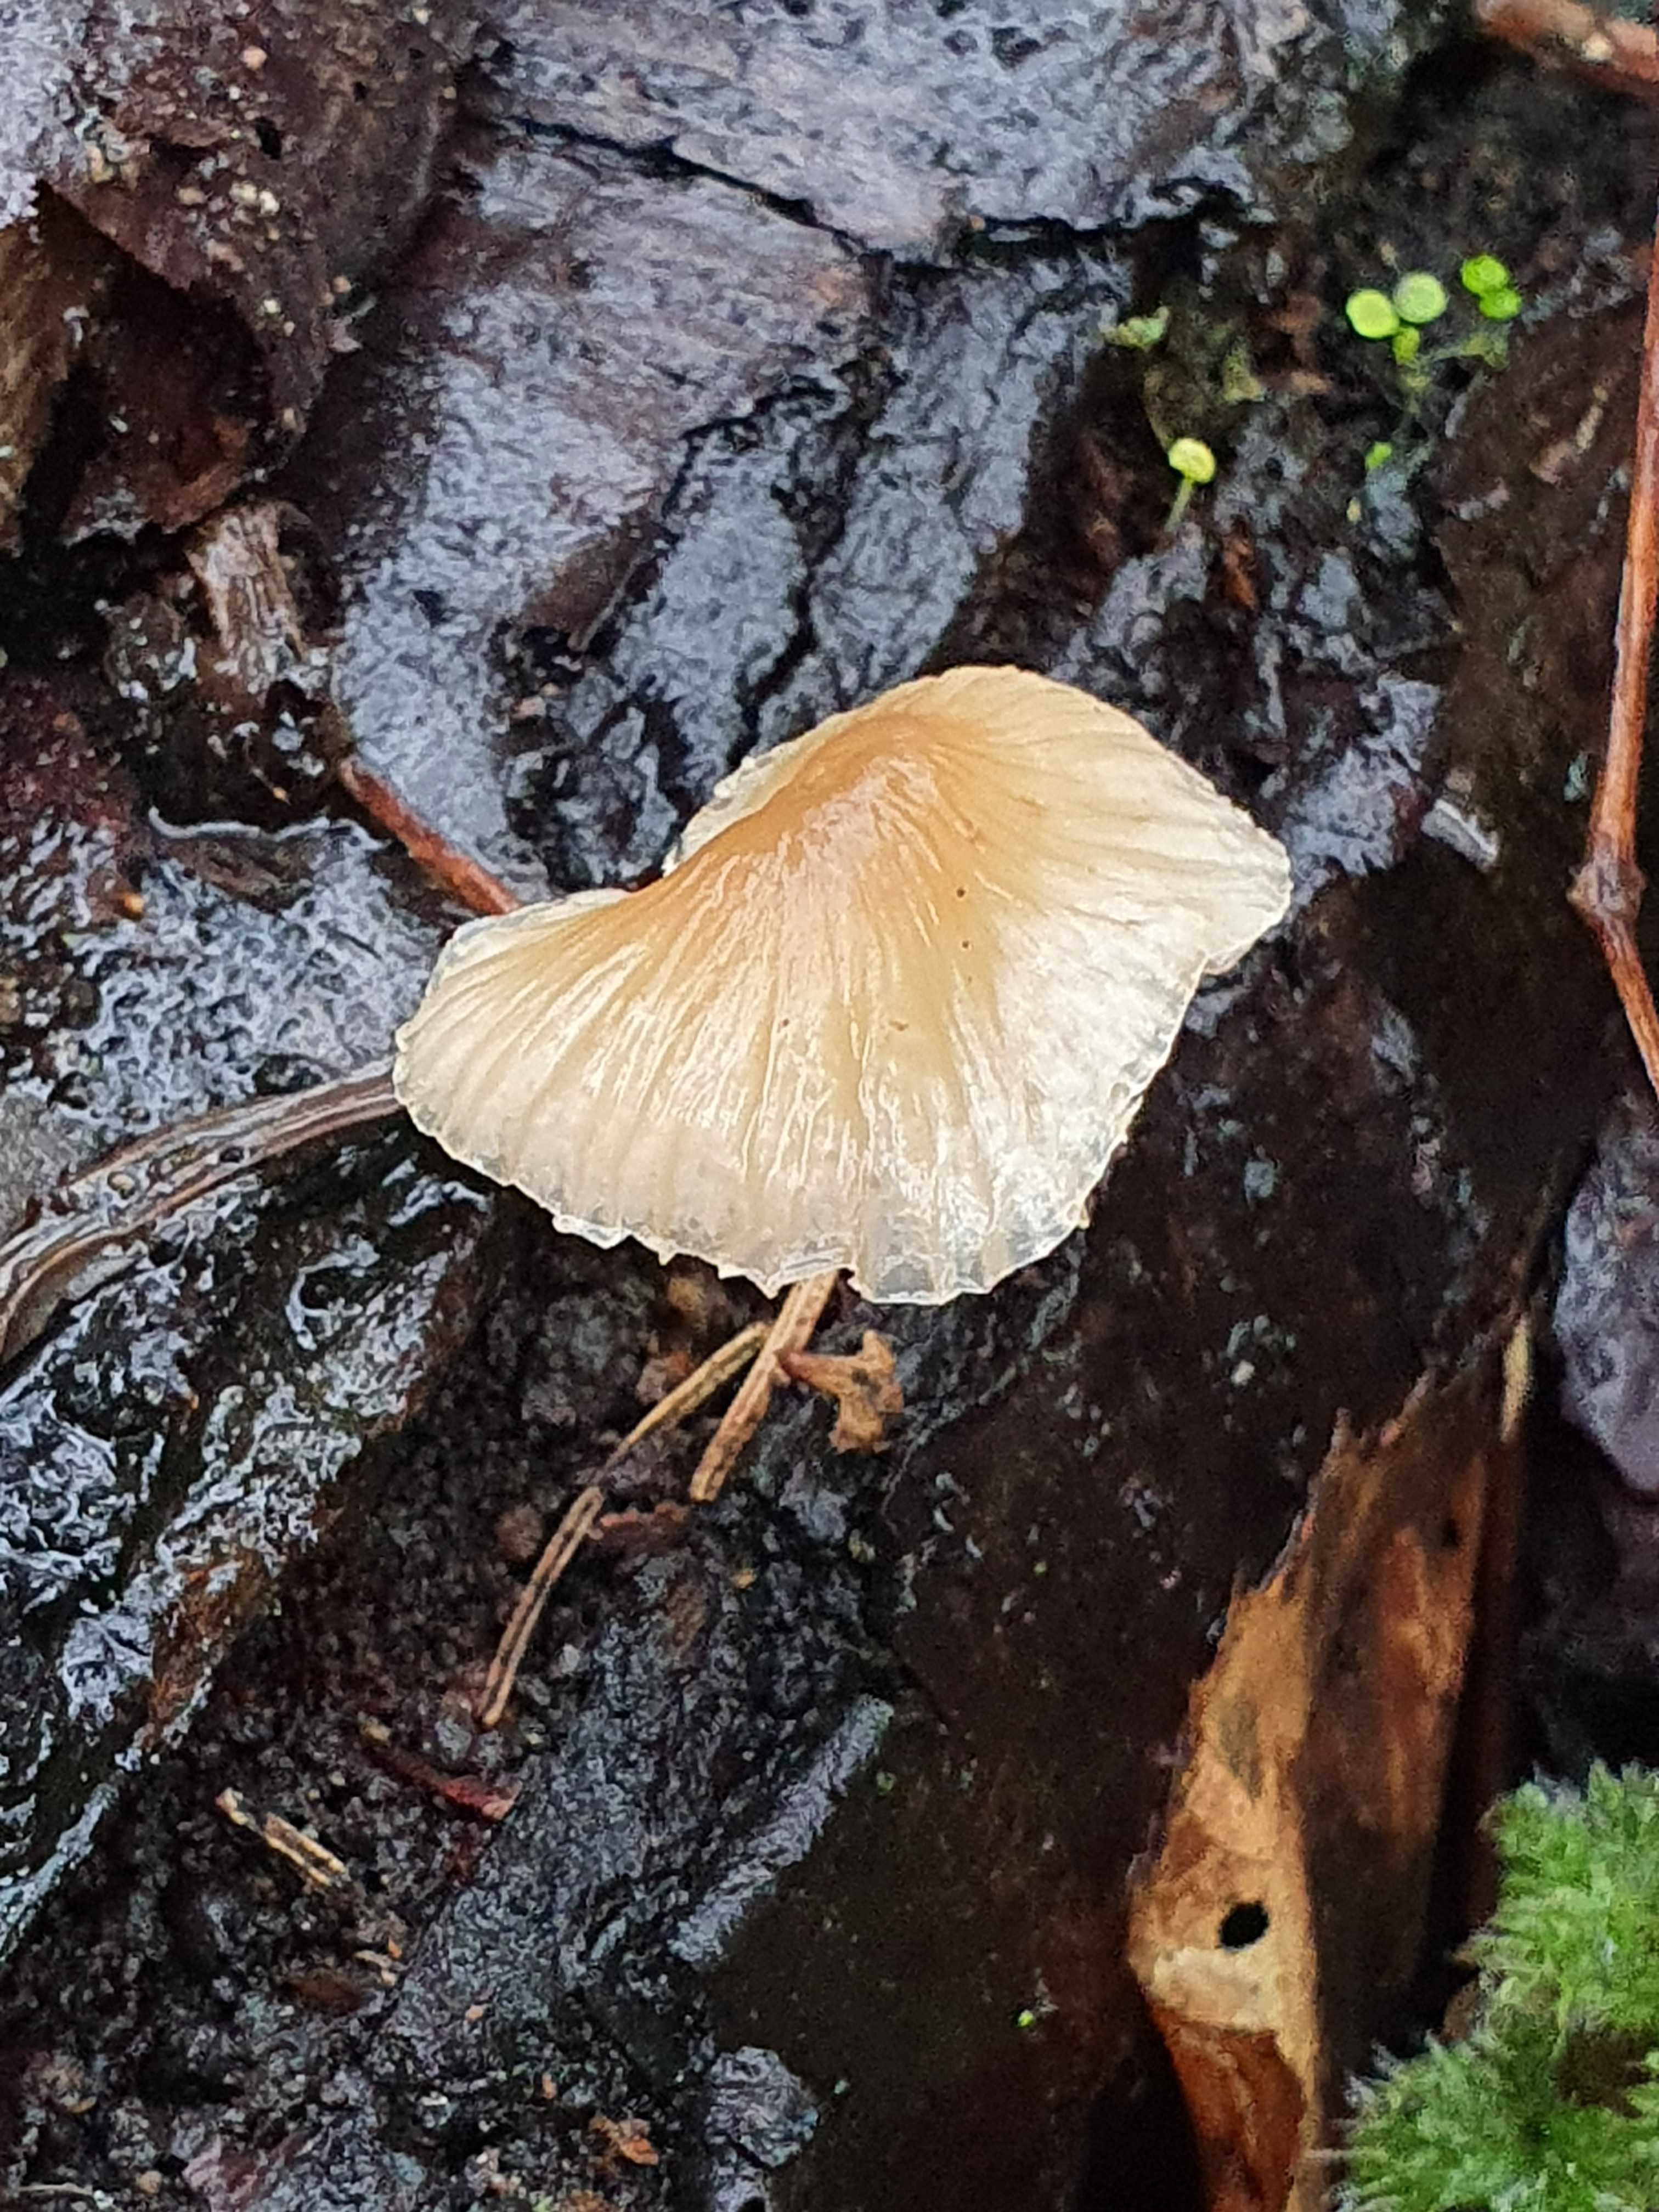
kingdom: Fungi
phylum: Basidiomycota
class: Agaricomycetes
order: Agaricales
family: Mycenaceae
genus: Mycena
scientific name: Mycena galericulata
